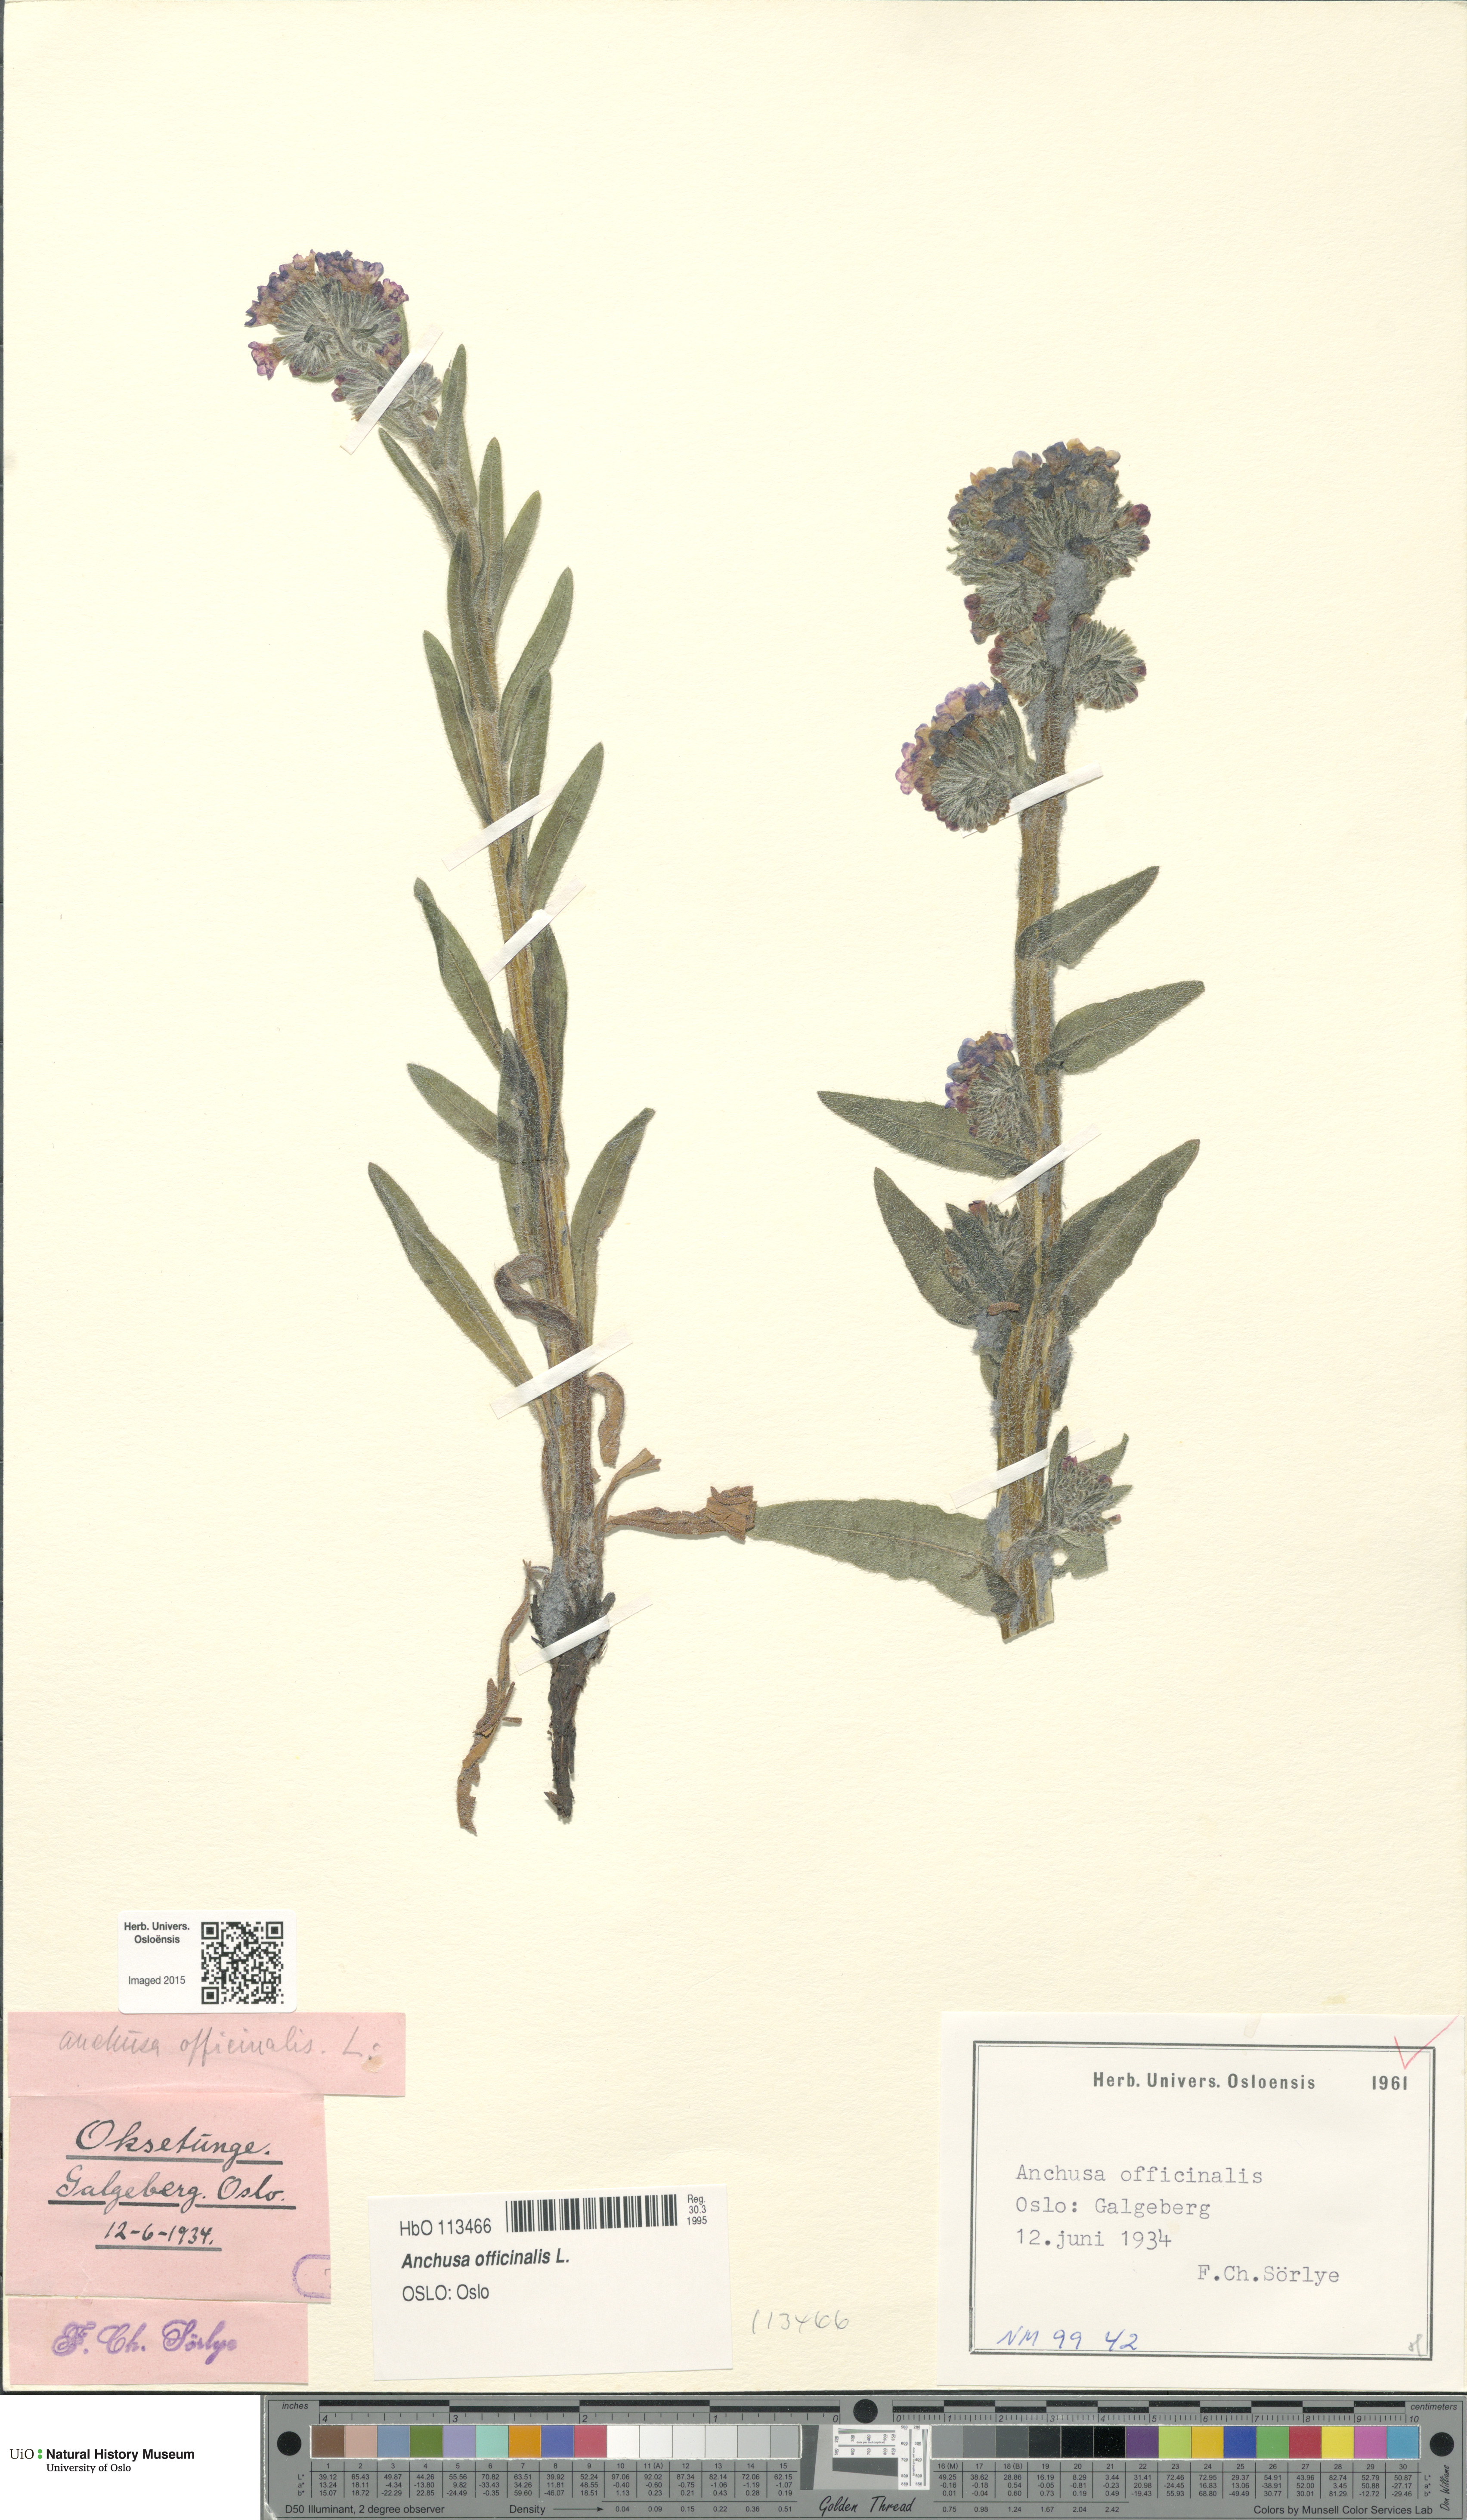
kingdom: Plantae
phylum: Tracheophyta
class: Magnoliopsida
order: Boraginales
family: Boraginaceae
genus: Anchusa
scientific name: Anchusa officinalis
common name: Alkanet
